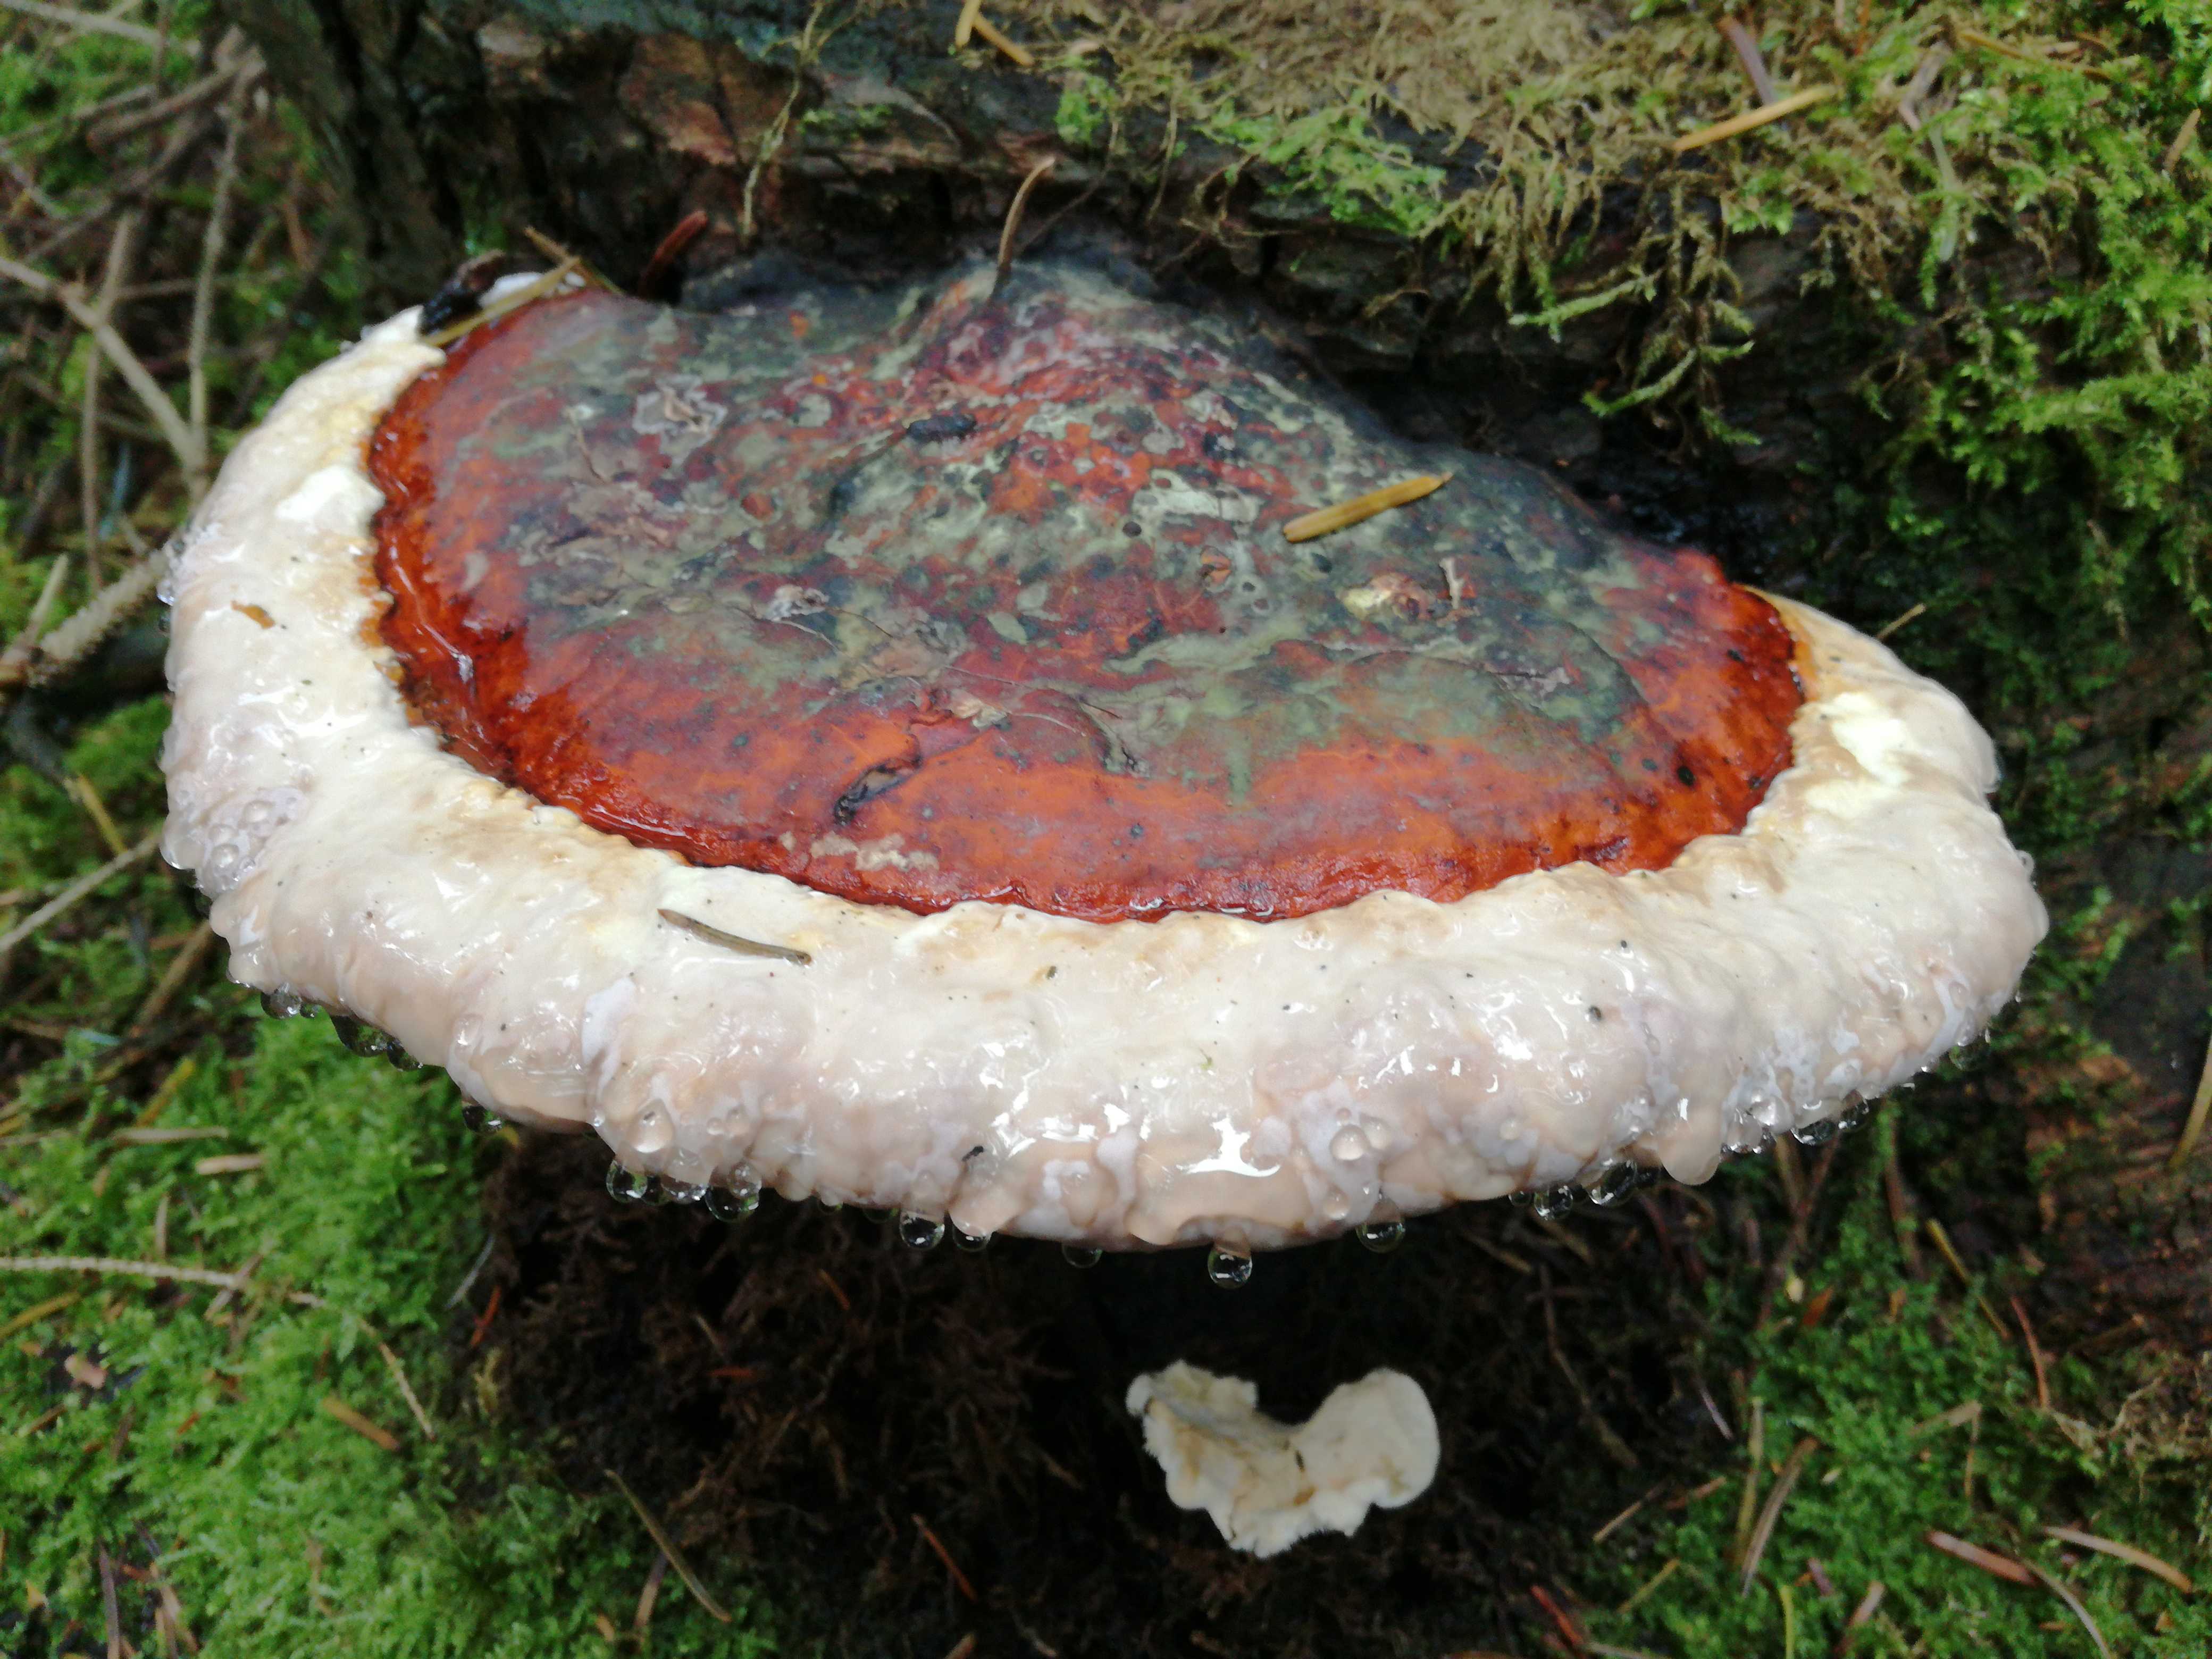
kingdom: Fungi
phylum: Basidiomycota
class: Agaricomycetes
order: Polyporales
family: Fomitopsidaceae
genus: Fomitopsis
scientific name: Fomitopsis pinicola
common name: randbæltet hovporesvamp
